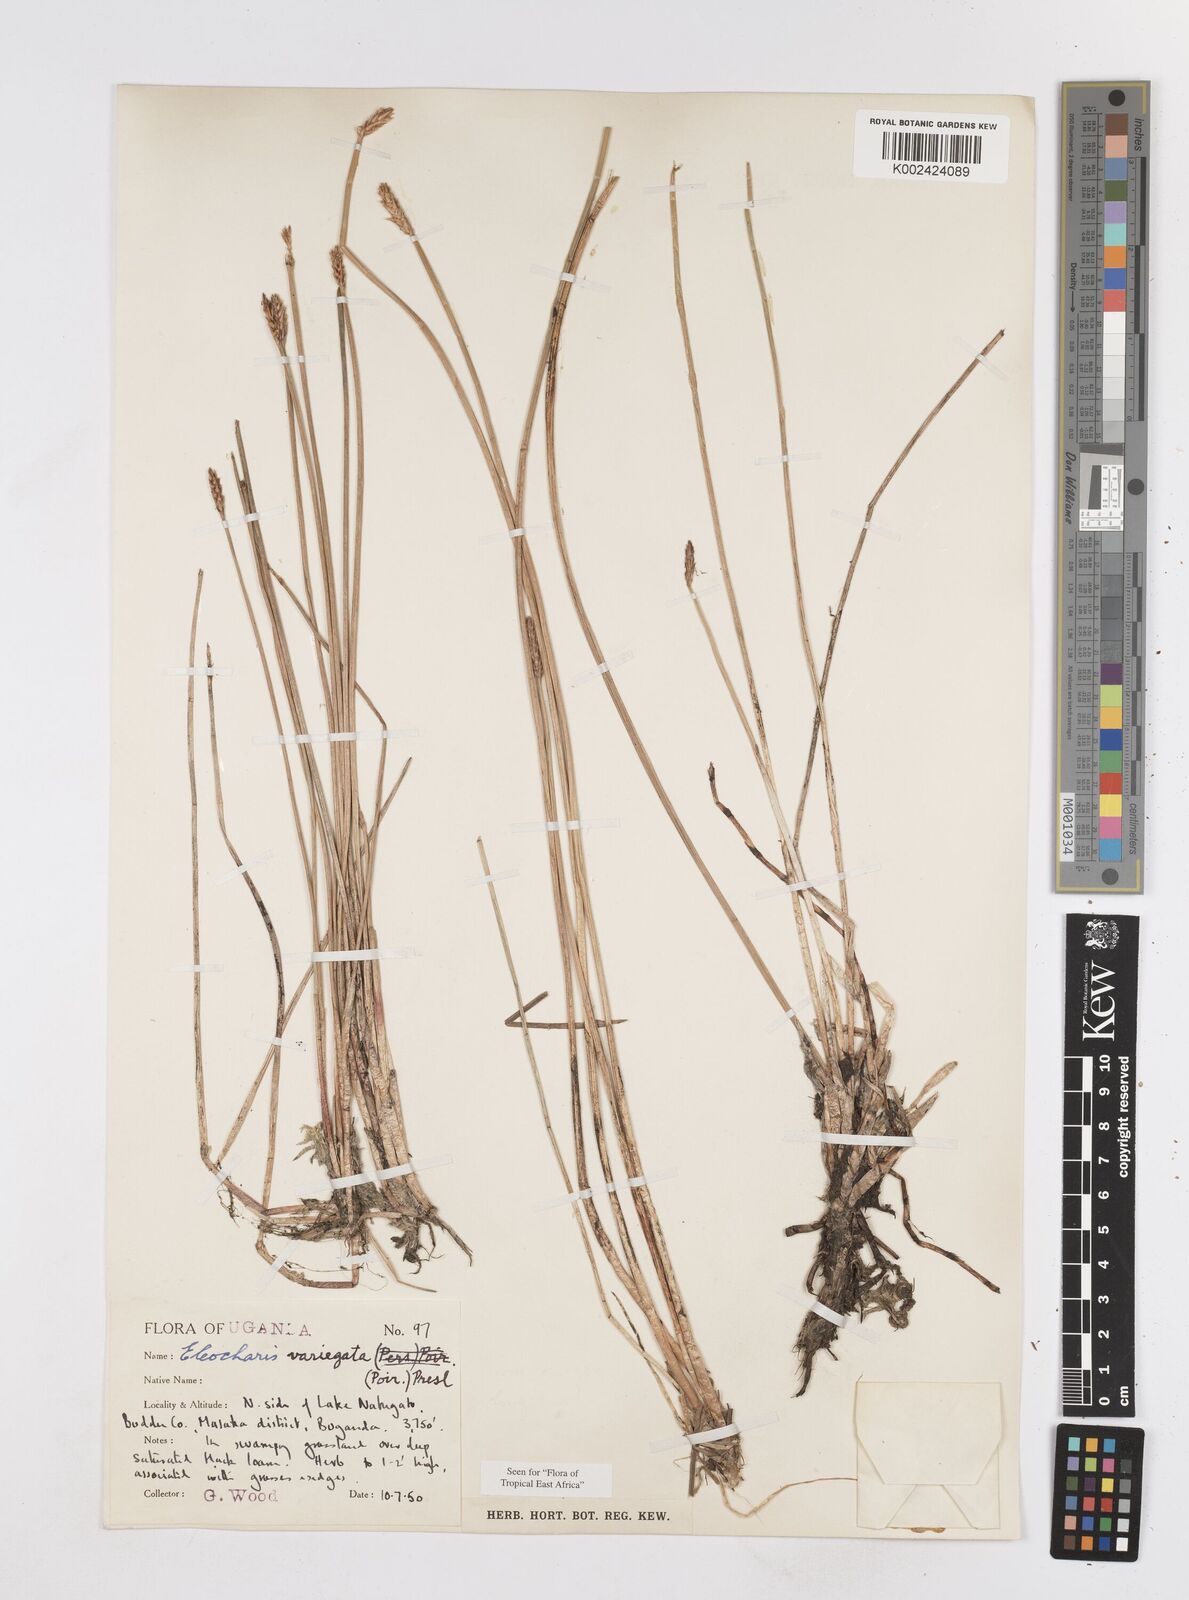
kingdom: Plantae
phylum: Tracheophyta
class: Liliopsida
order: Poales
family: Cyperaceae
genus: Eleocharis
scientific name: Eleocharis variegata
